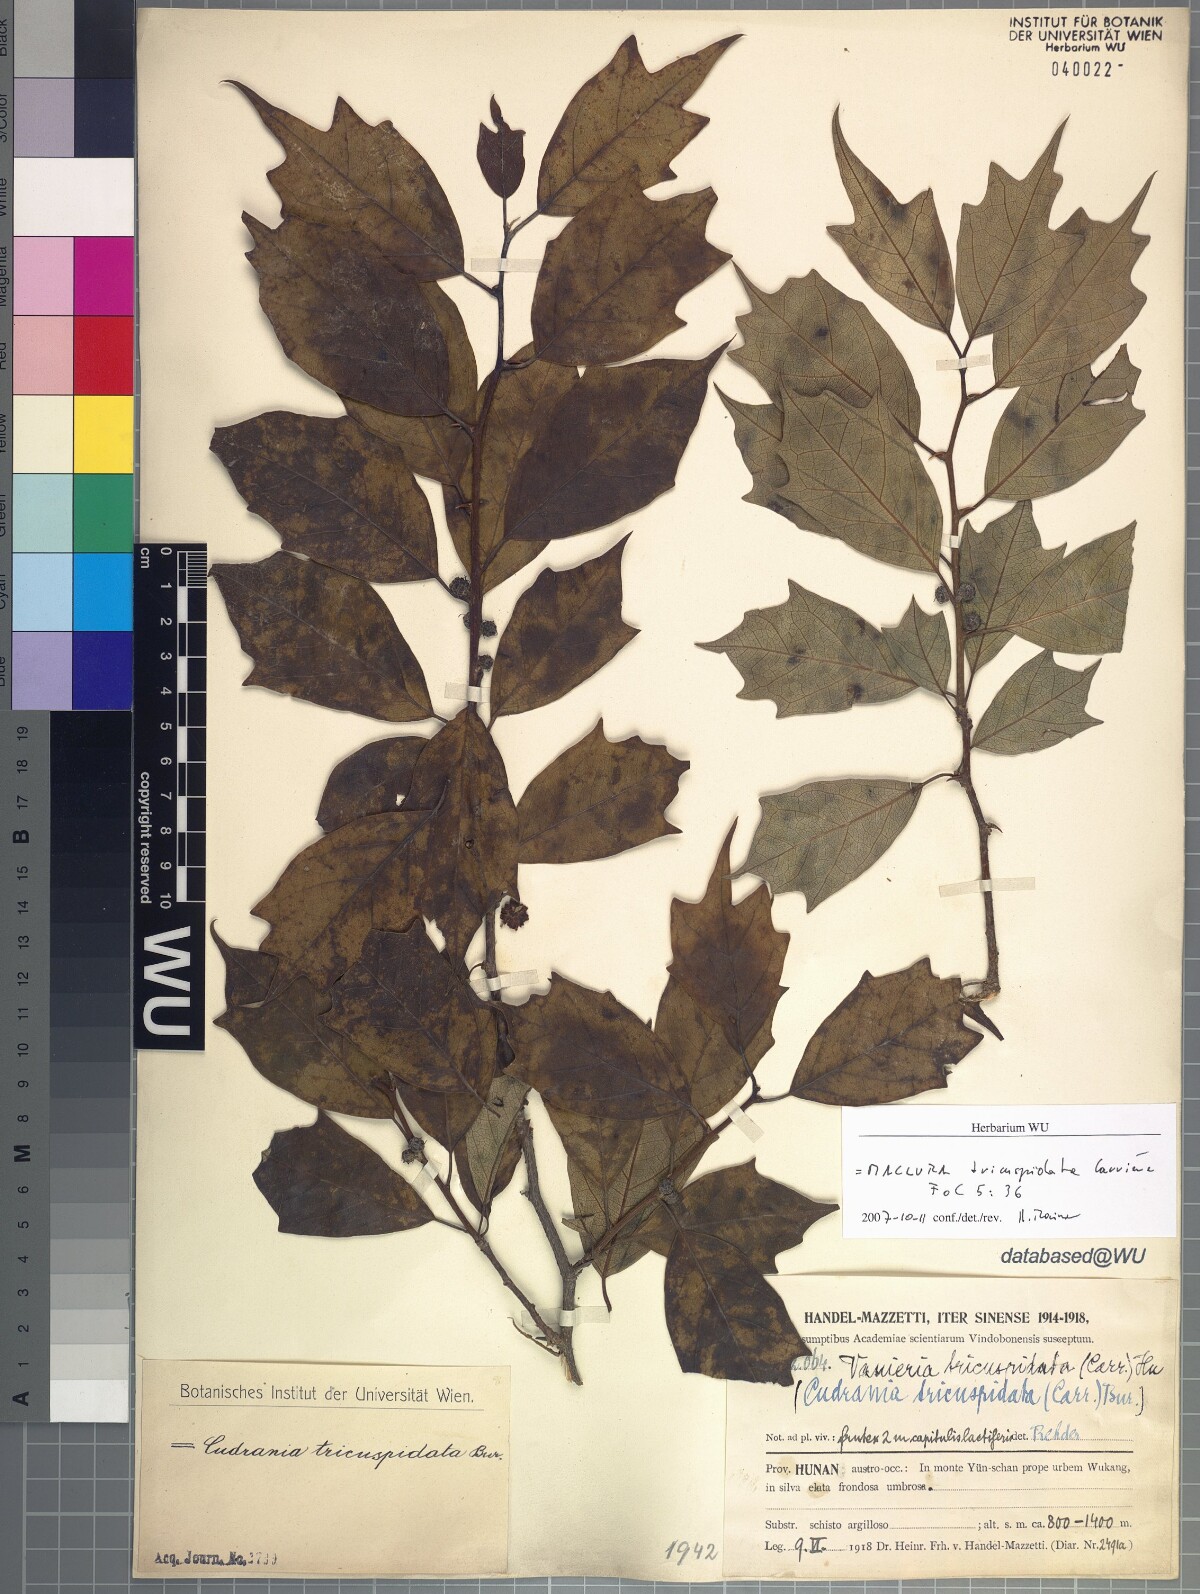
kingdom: Plantae
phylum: Tracheophyta
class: Magnoliopsida
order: Rosales
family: Moraceae
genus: Maclura
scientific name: Maclura tricuspidata
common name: Storehousebush
